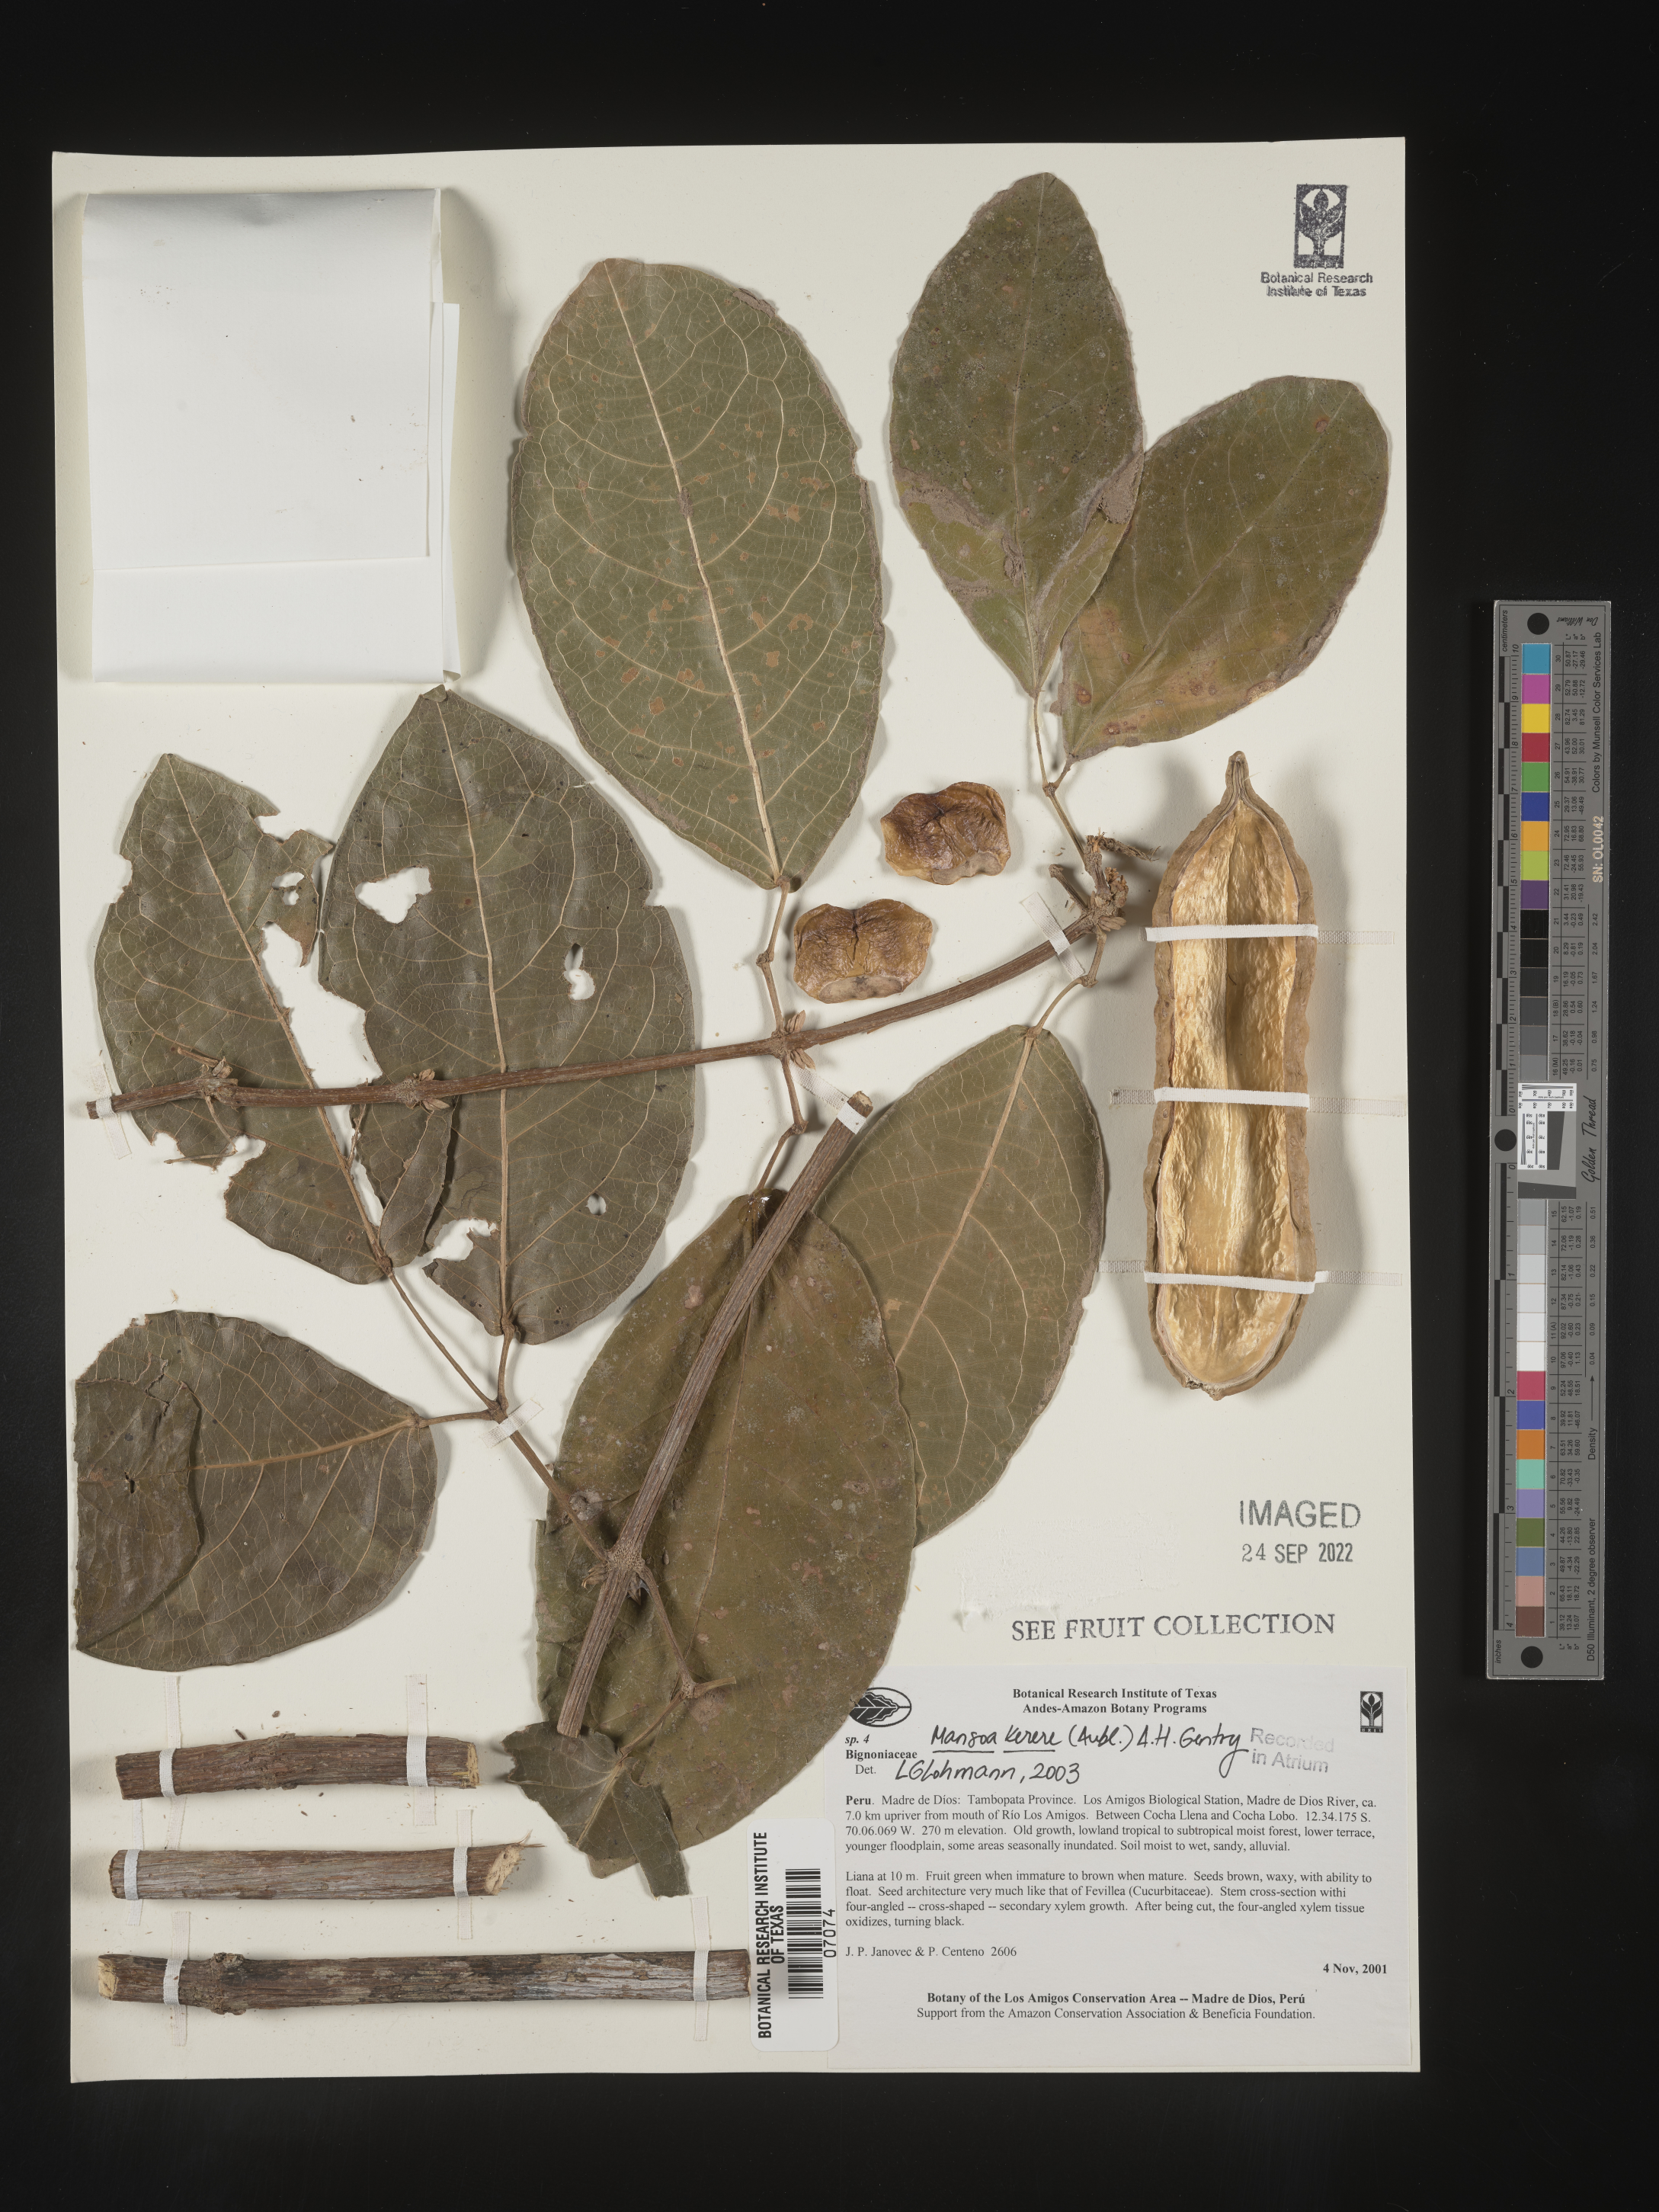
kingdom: Plantae
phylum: Tracheophyta
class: Magnoliopsida
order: Lamiales
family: Bignoniaceae
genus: Pachyptera
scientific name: Pachyptera kerere
